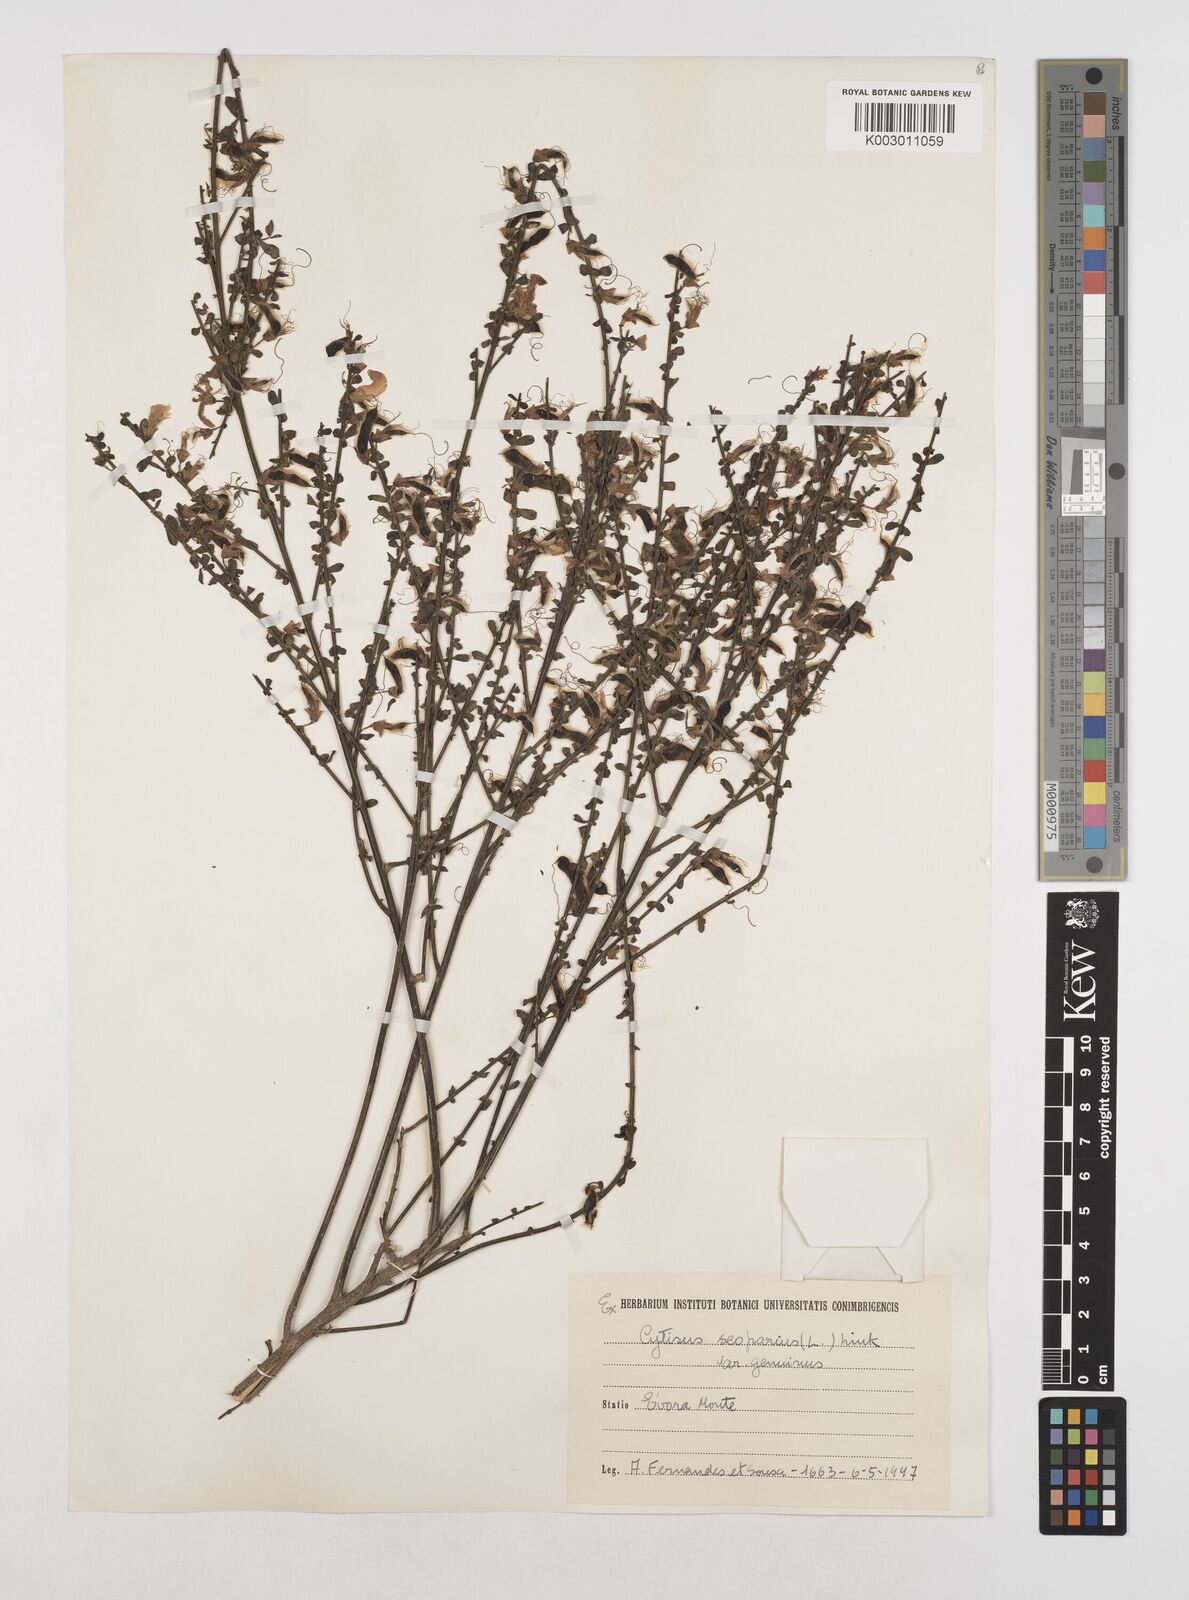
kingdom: Plantae
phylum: Tracheophyta
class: Magnoliopsida
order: Fabales
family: Fabaceae
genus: Cytisus
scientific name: Cytisus scoparius
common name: Scotch broom
